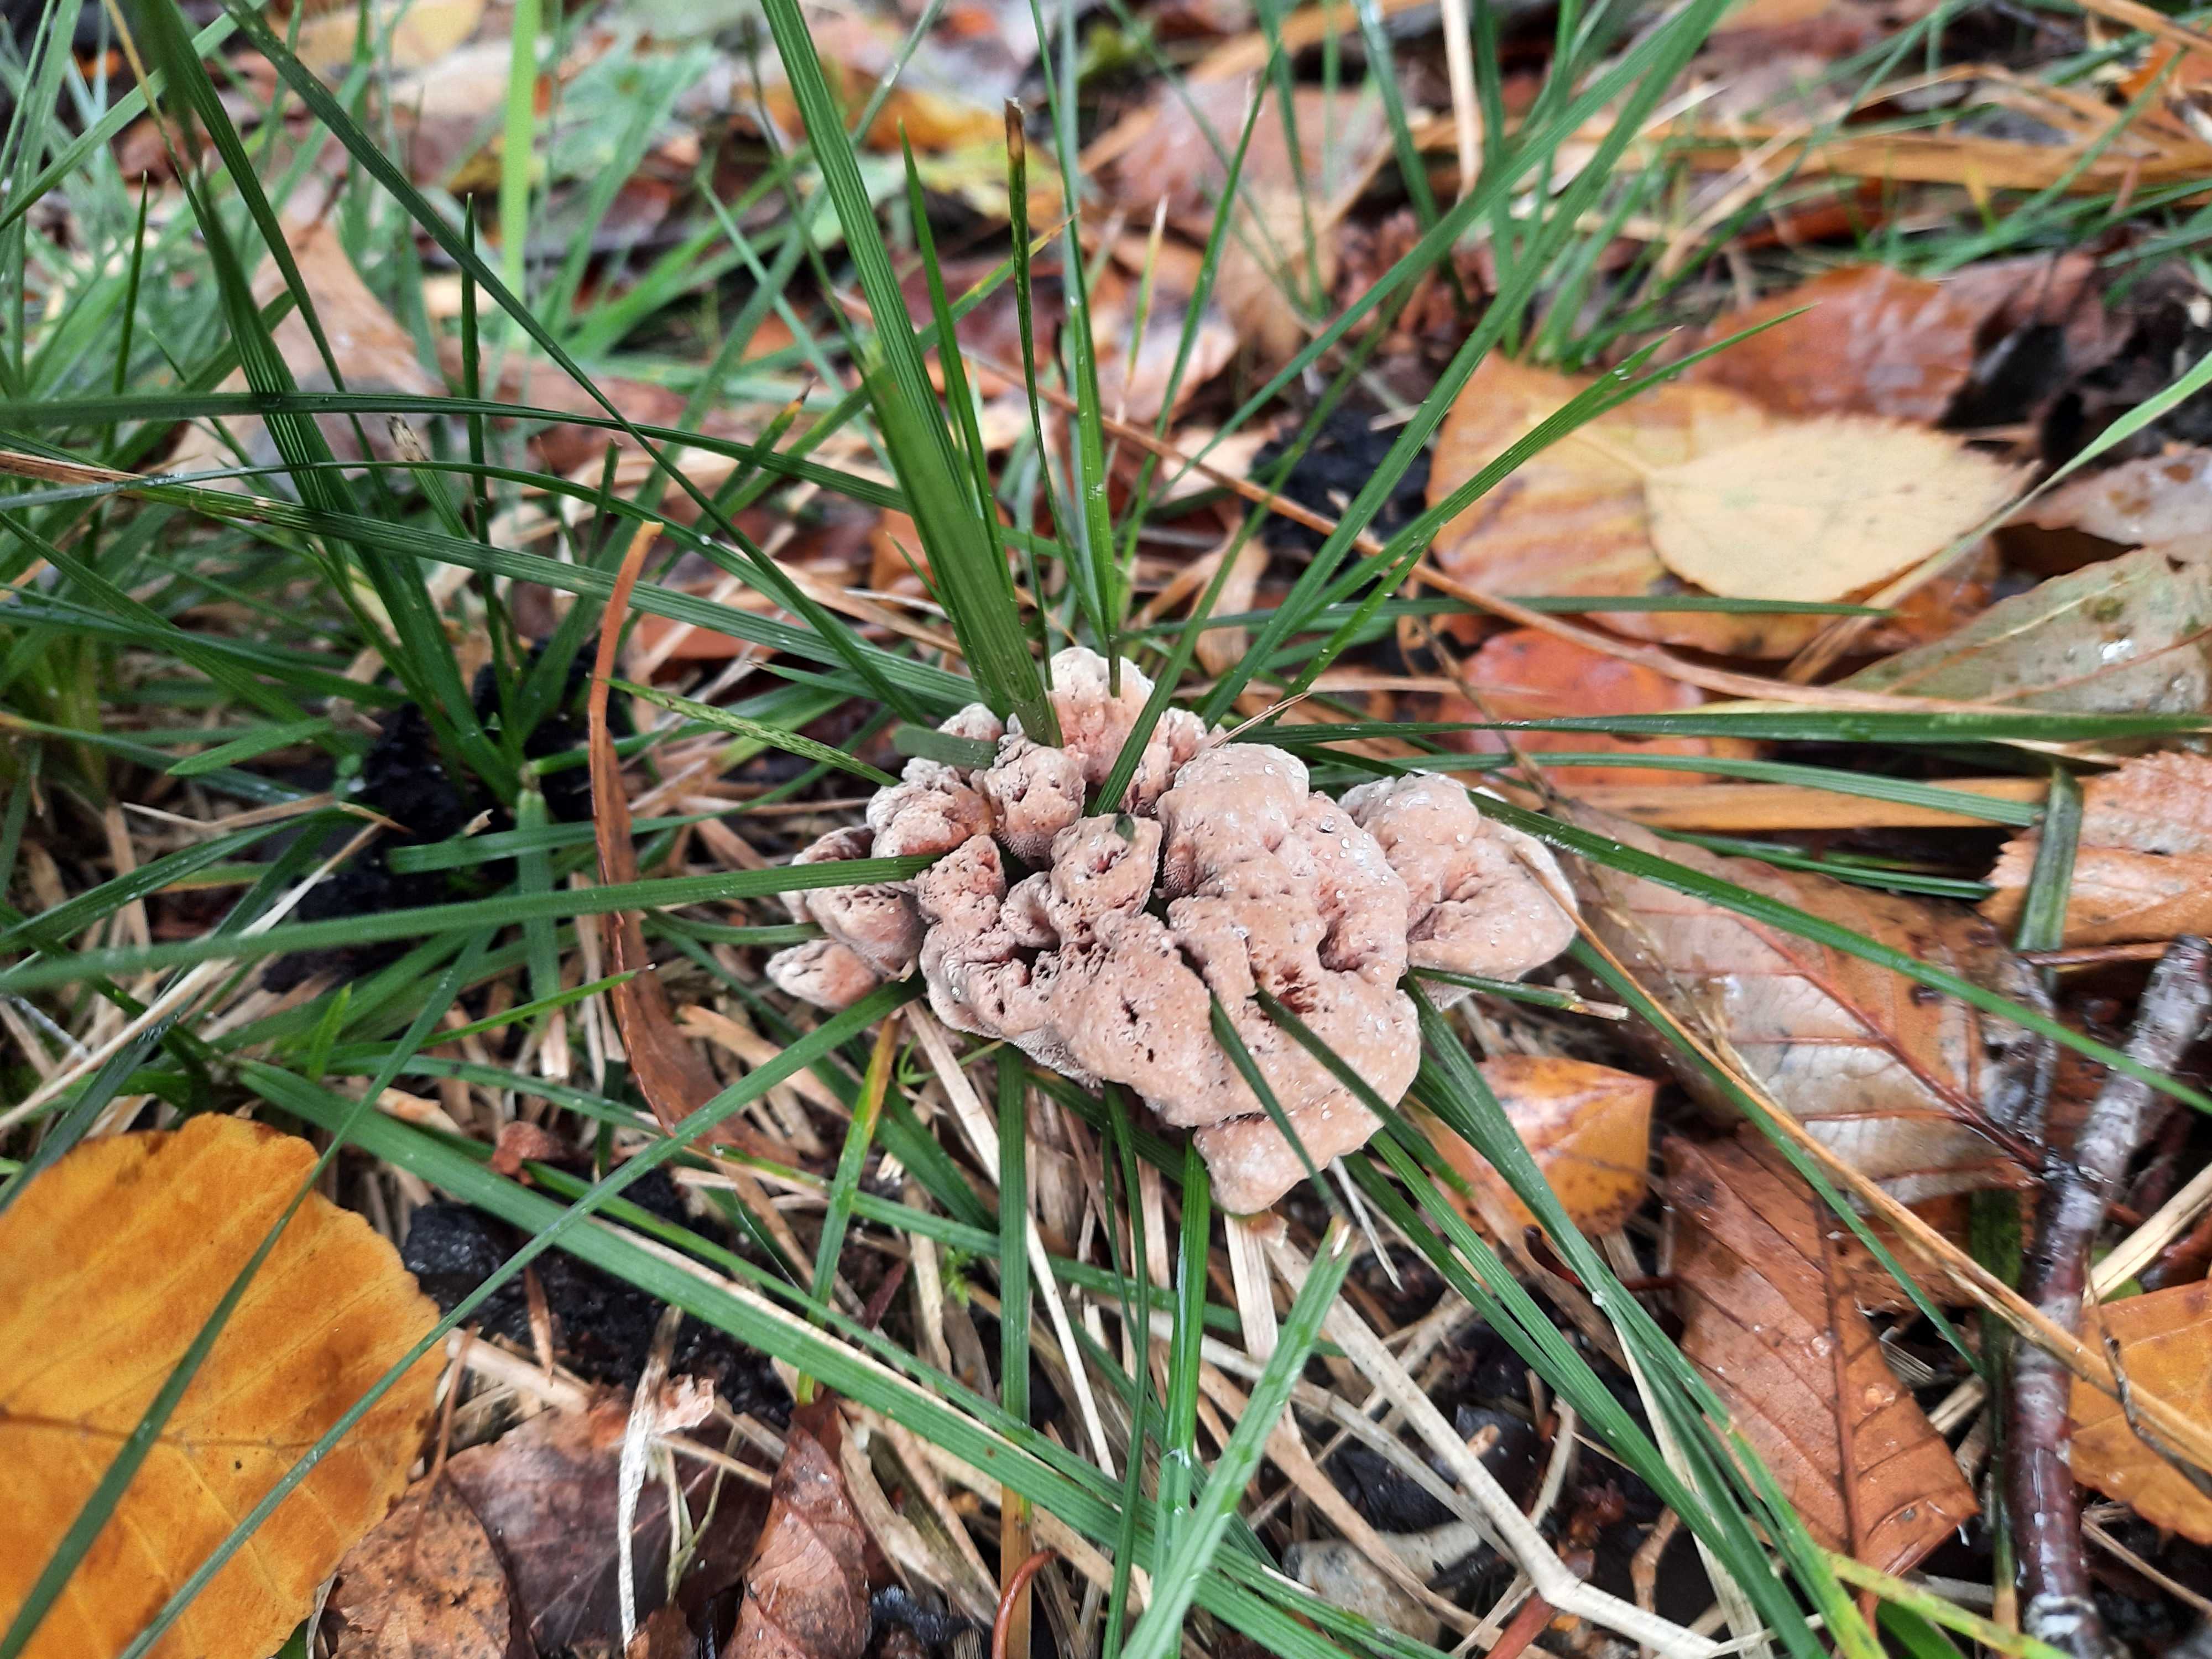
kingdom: Fungi
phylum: Basidiomycota
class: Agaricomycetes
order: Thelephorales
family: Bankeraceae
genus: Hydnellum
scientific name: Hydnellum concrescens
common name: bæltet korkpigsvamp
